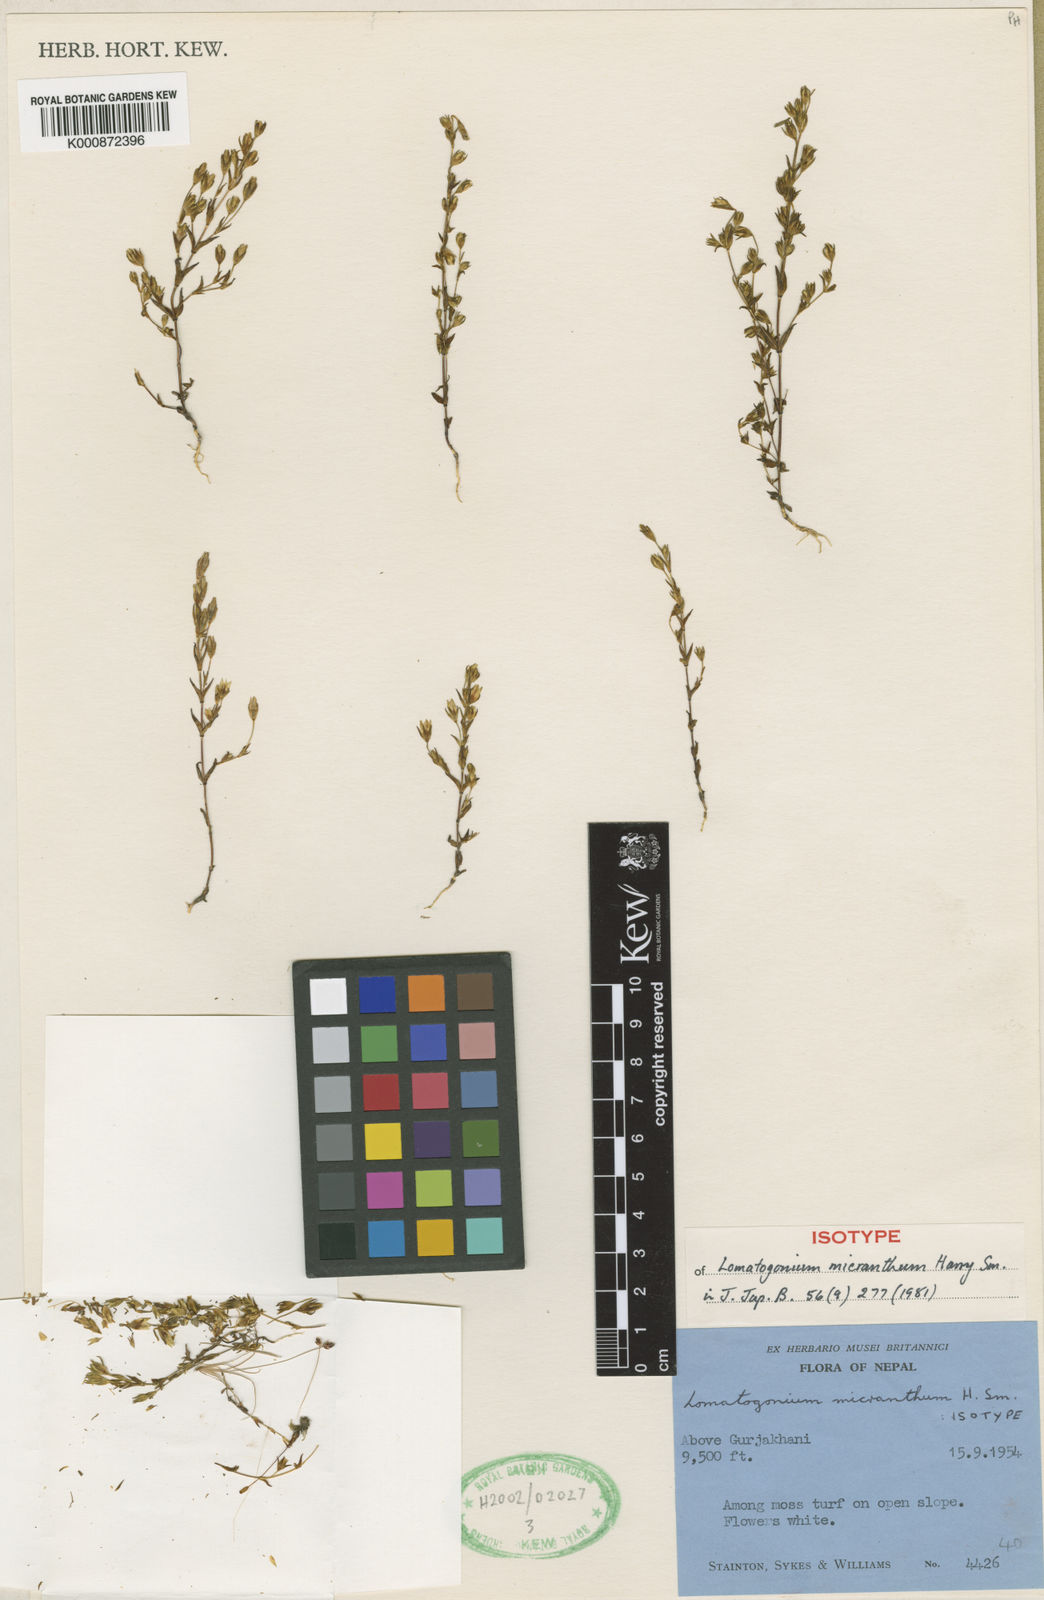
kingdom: Plantae
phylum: Tracheophyta
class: Magnoliopsida
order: Gentianales
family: Gentianaceae
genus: Lomatogonium
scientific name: Lomatogonium micranthum
